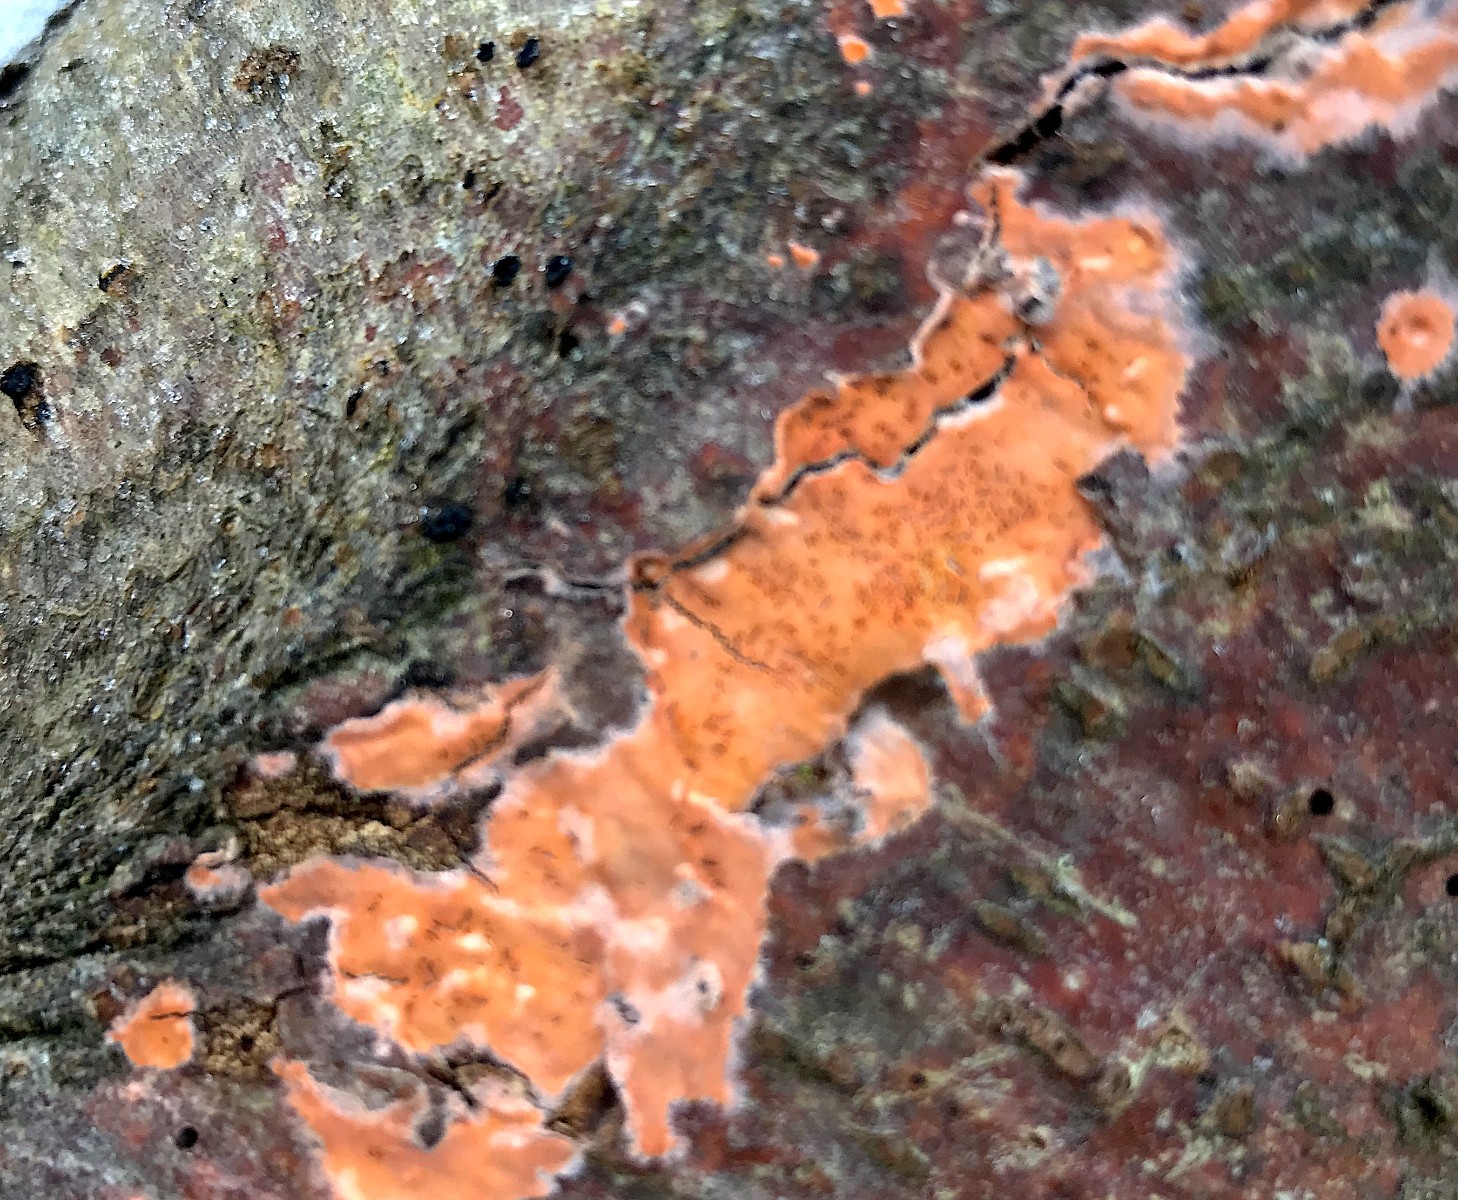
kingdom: Fungi
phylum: Basidiomycota
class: Agaricomycetes
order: Russulales
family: Peniophoraceae
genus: Peniophora
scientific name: Peniophora incarnata
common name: laksefarvet voksskind
